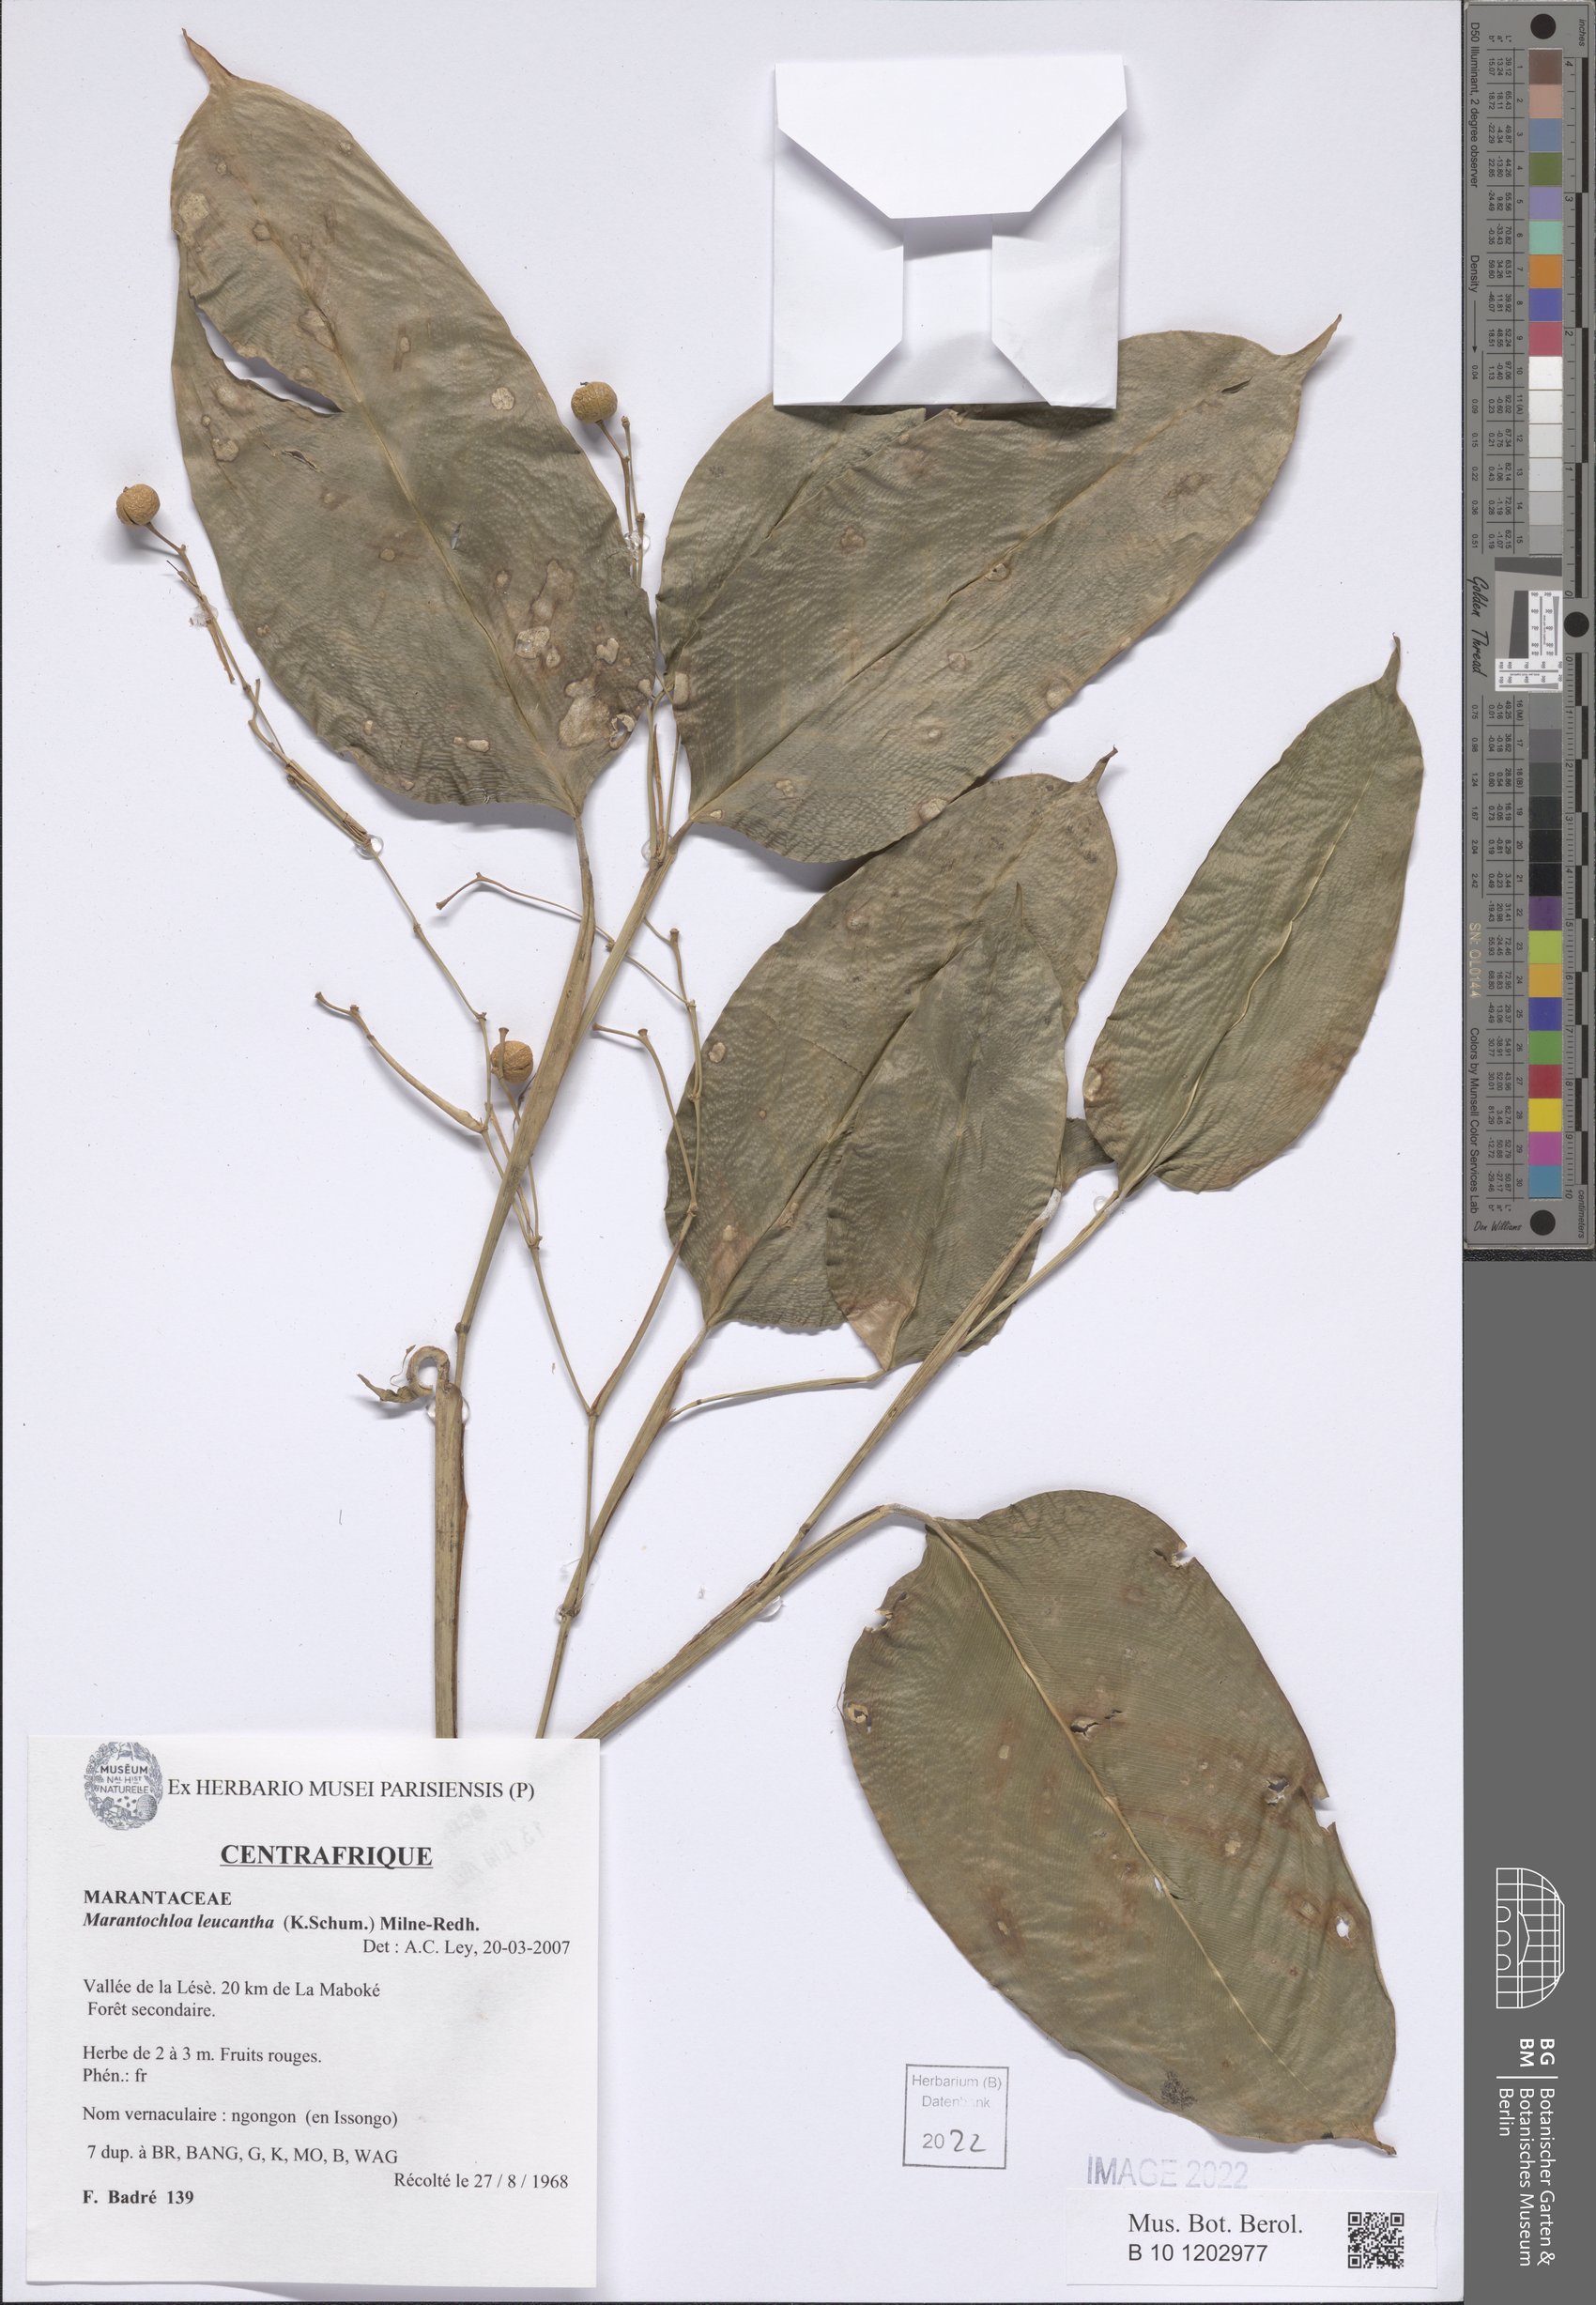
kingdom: Plantae
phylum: Tracheophyta
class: Liliopsida
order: Zingiberales
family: Marantaceae
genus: Marantochloa
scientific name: Marantochloa leucantha
